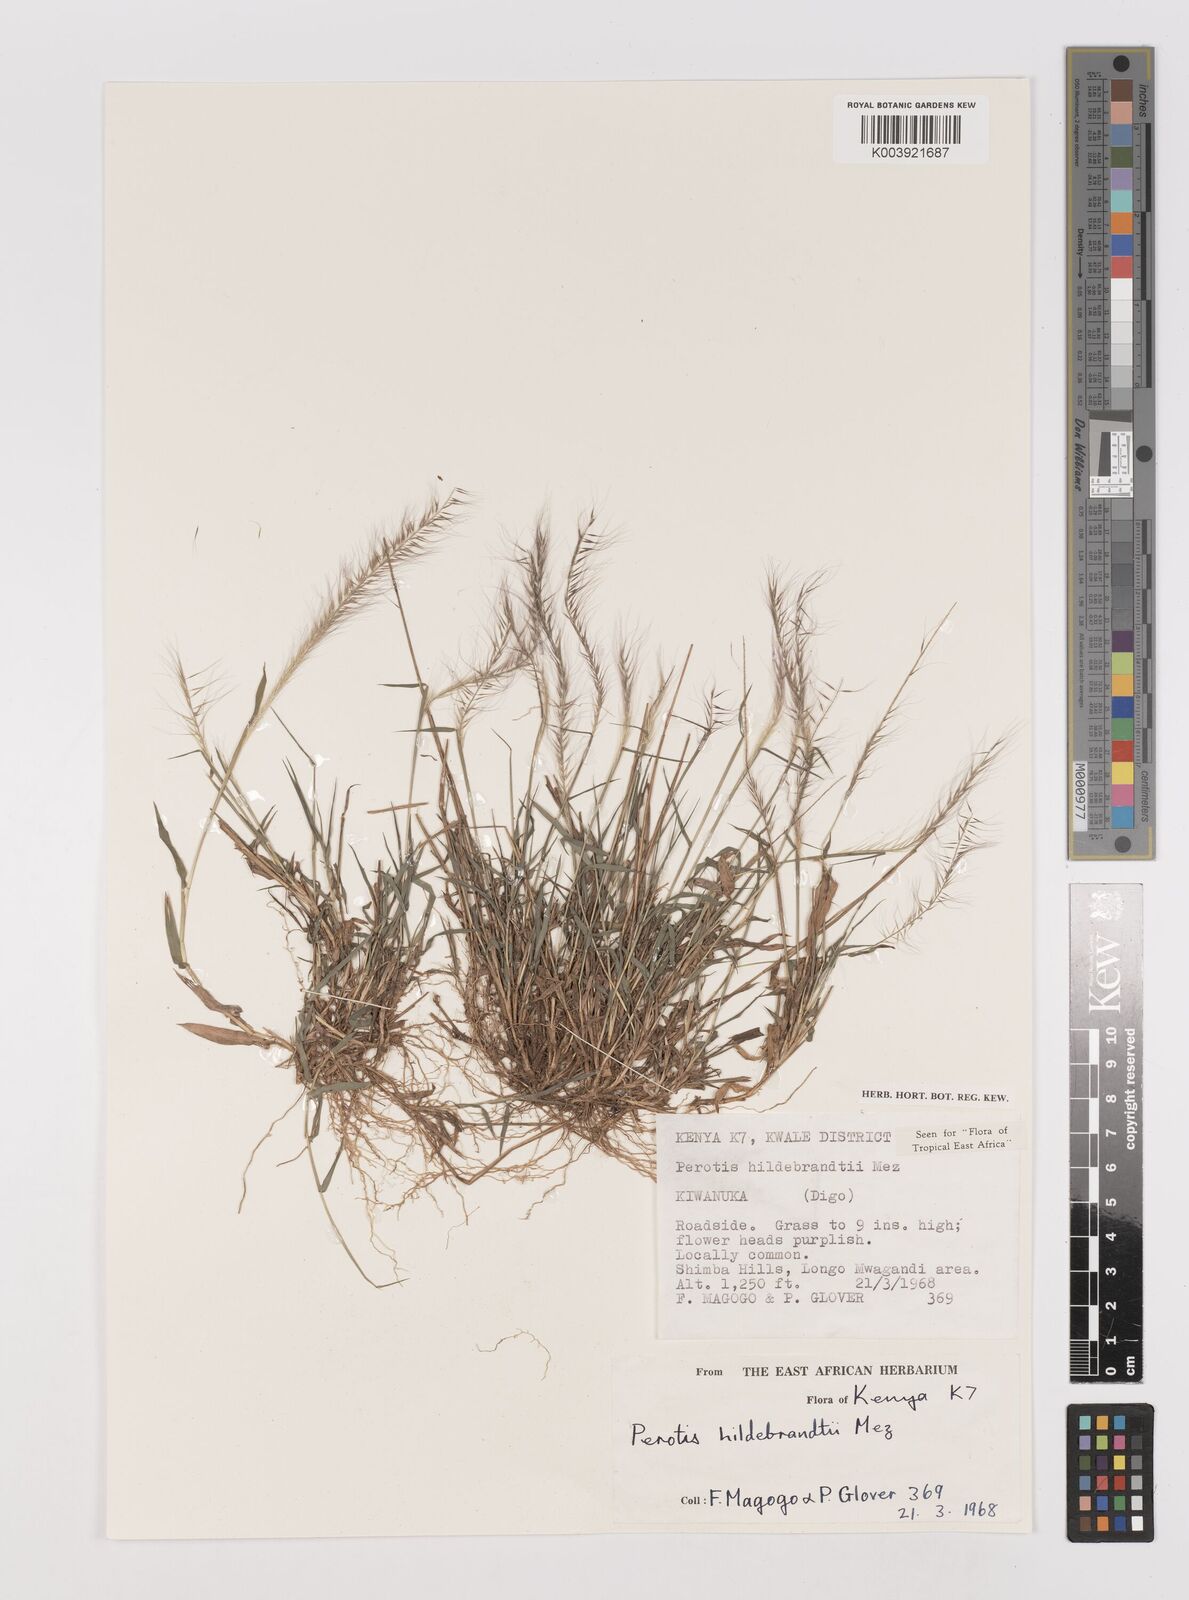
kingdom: Plantae
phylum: Tracheophyta
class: Liliopsida
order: Poales
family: Poaceae
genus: Perotis
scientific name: Perotis hildebrandtii
